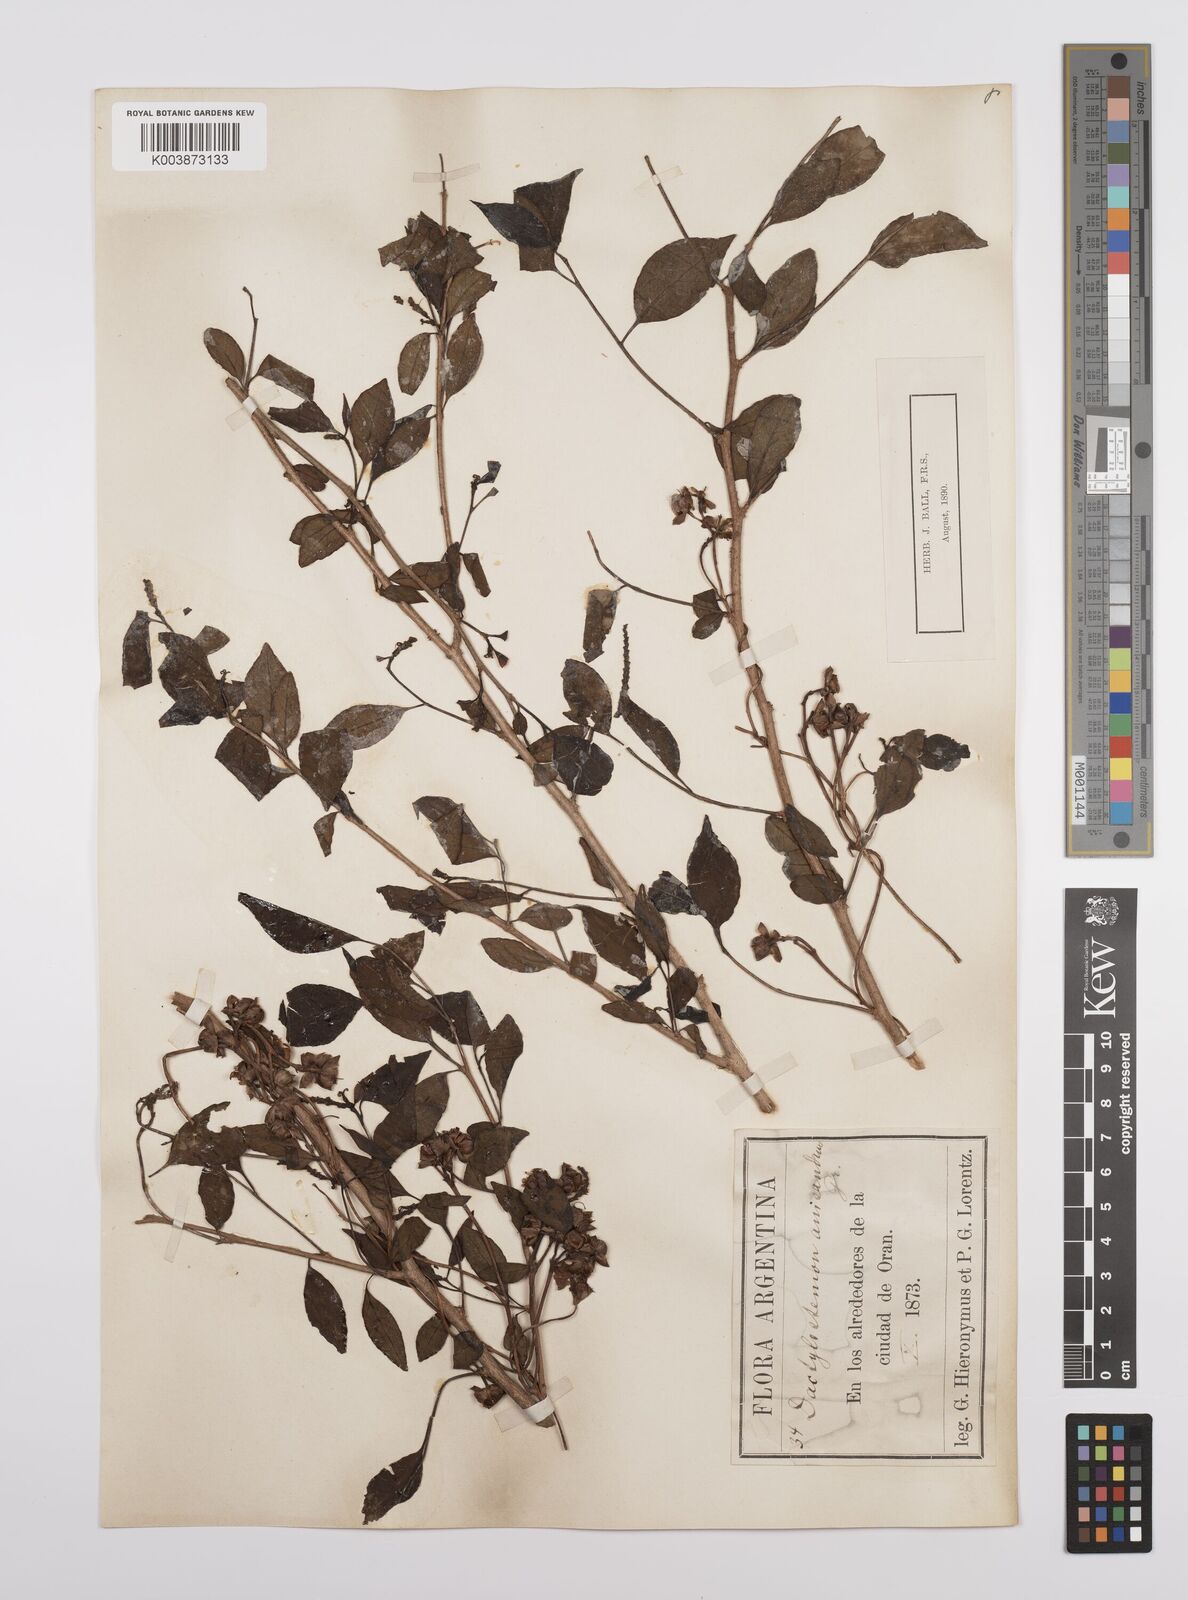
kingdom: Plantae
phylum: Tracheophyta
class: Magnoliopsida
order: Malpighiales
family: Euphorbiaceae
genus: Sebastiania
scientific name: Sebastiania brasiliensis
